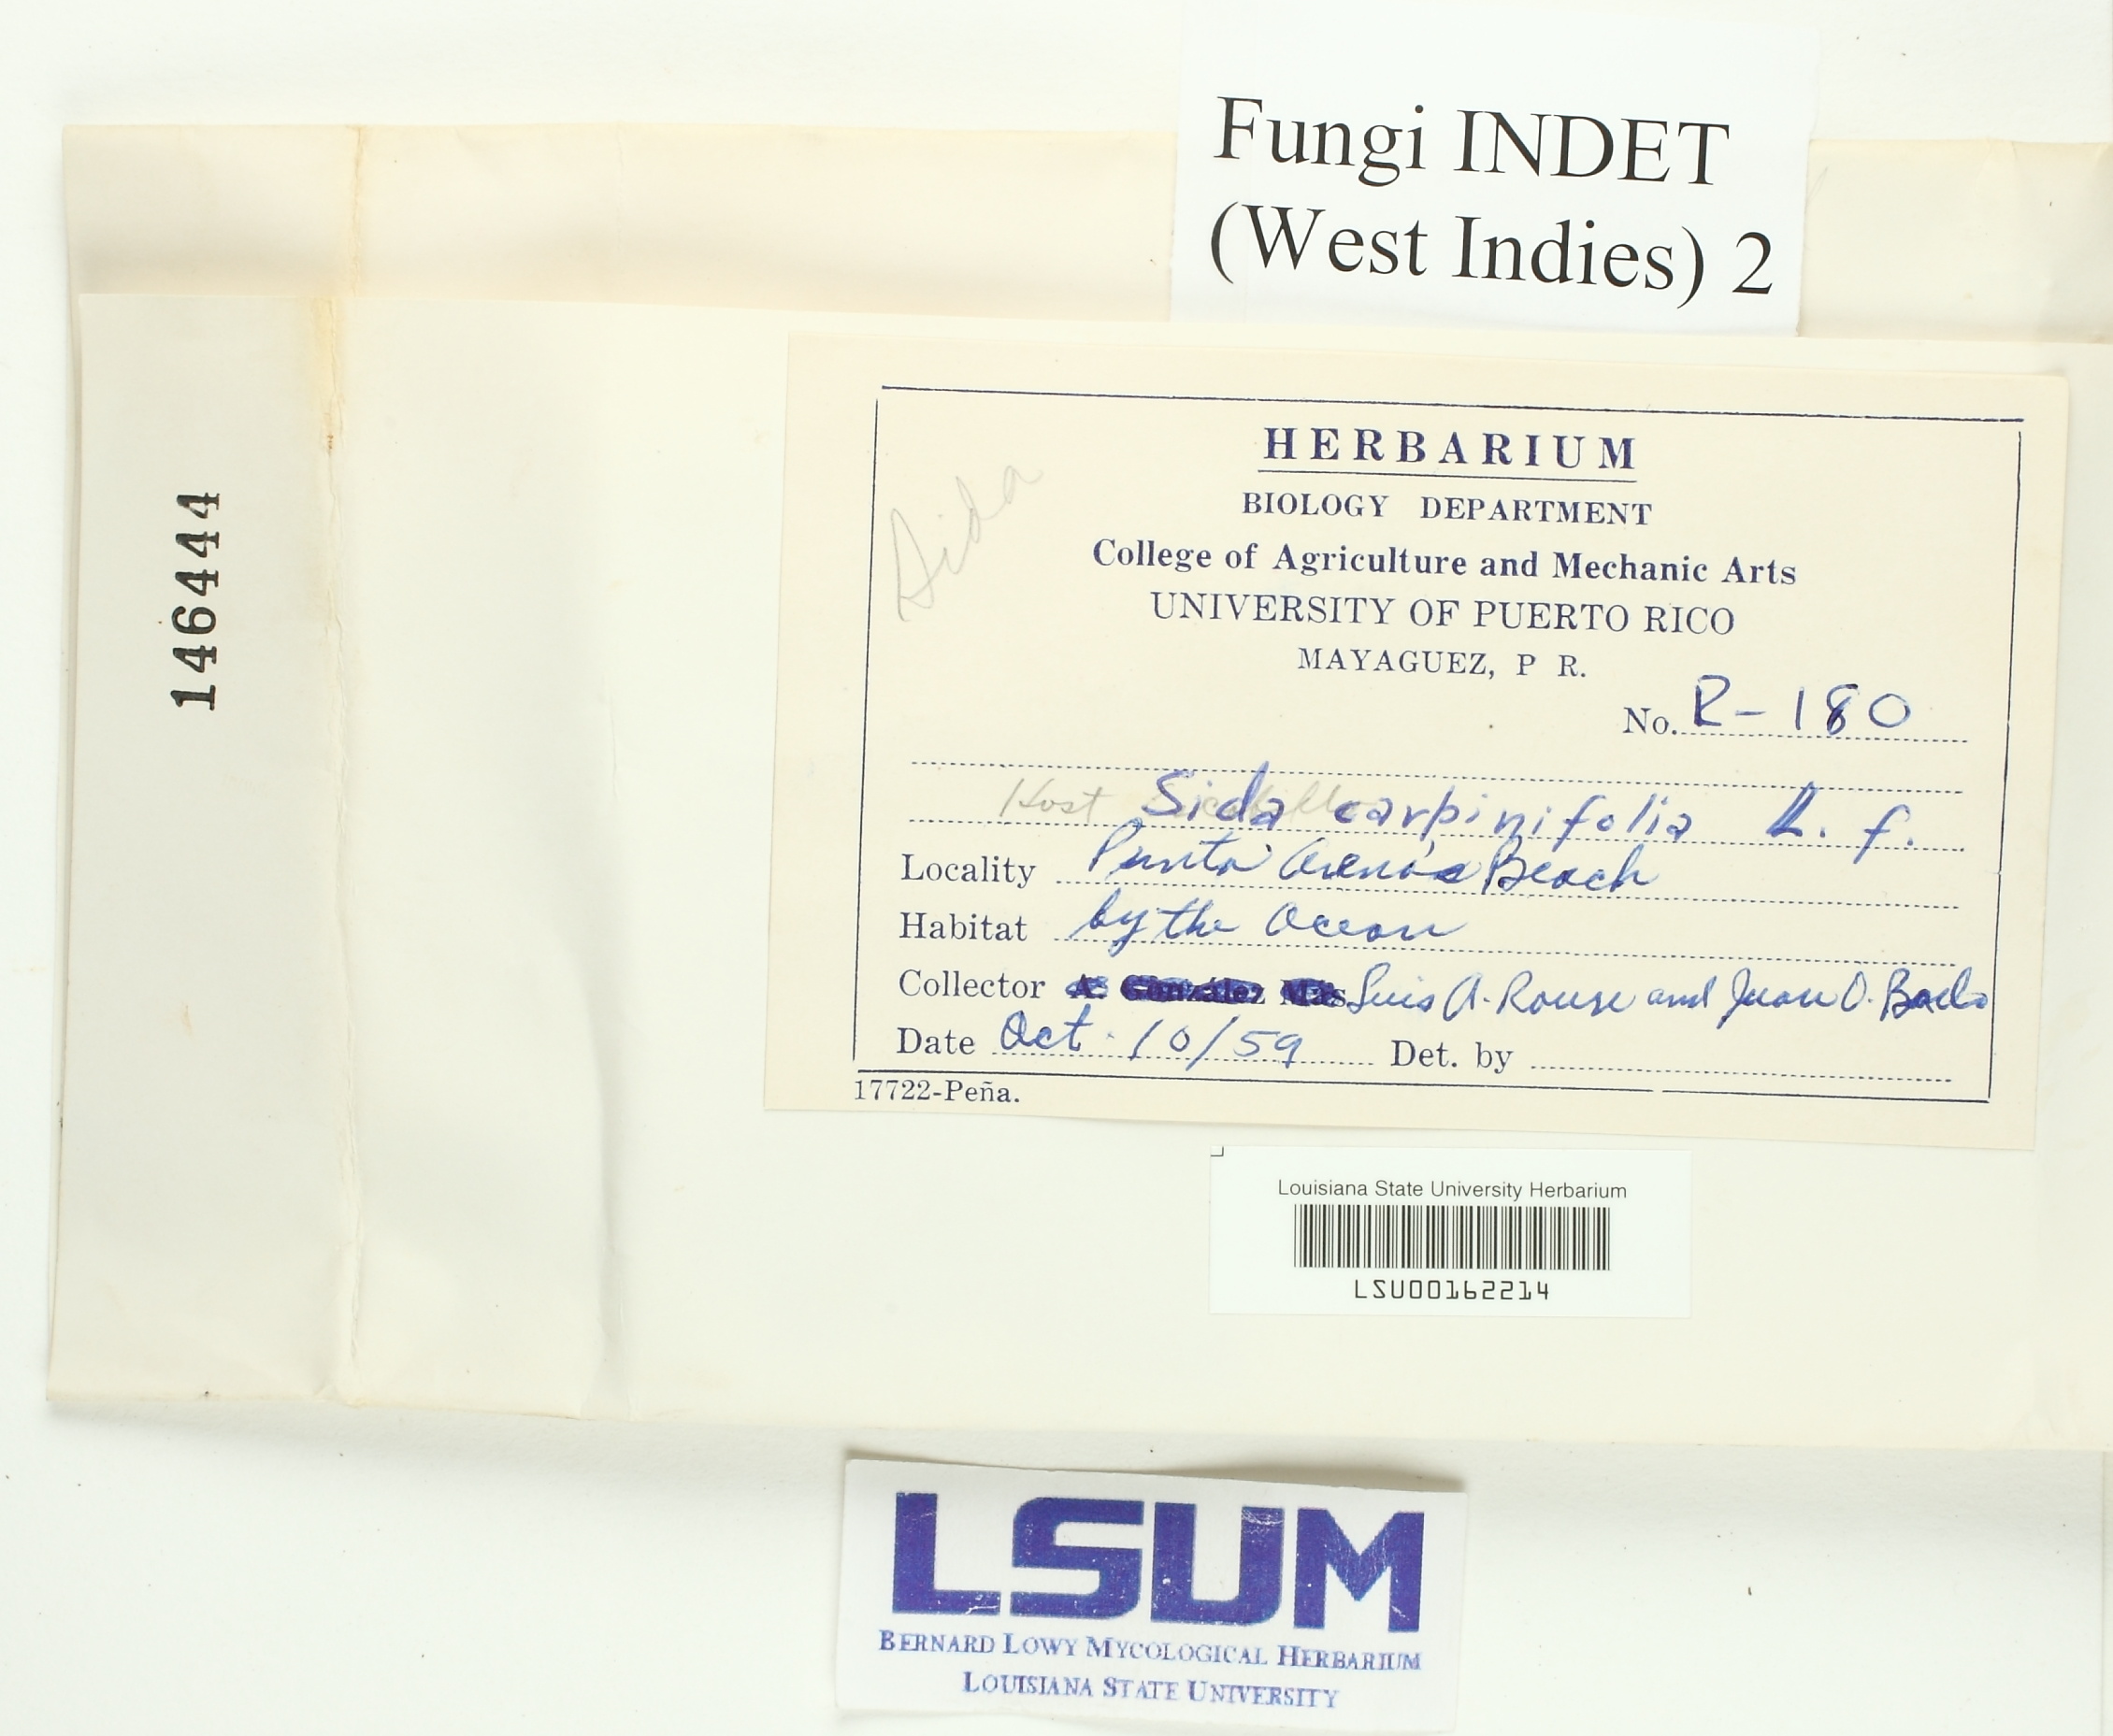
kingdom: Fungi
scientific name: Fungi
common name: Fungi
